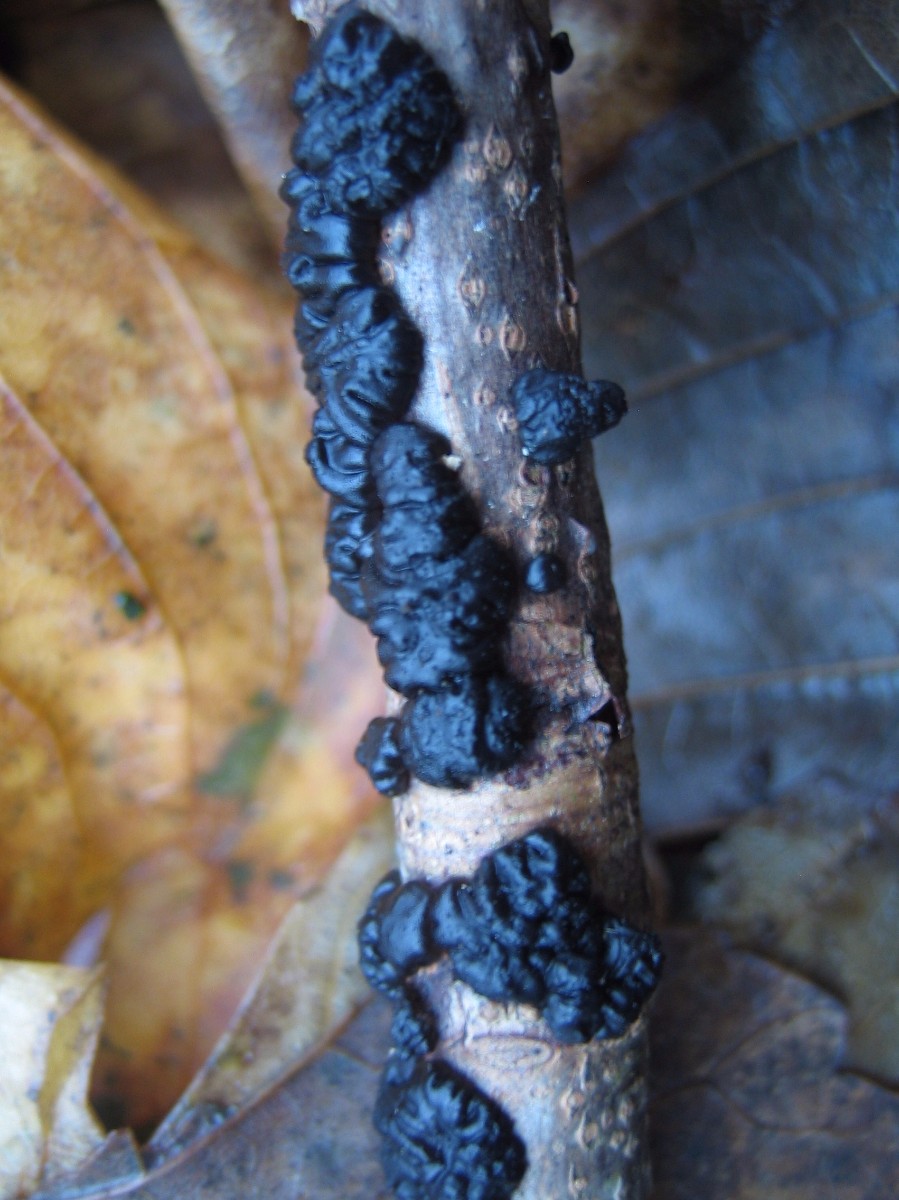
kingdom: Fungi
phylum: Basidiomycota
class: Agaricomycetes
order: Auriculariales
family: Auriculariaceae
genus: Exidia
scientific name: Exidia nigricans
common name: almindelig bævretop
